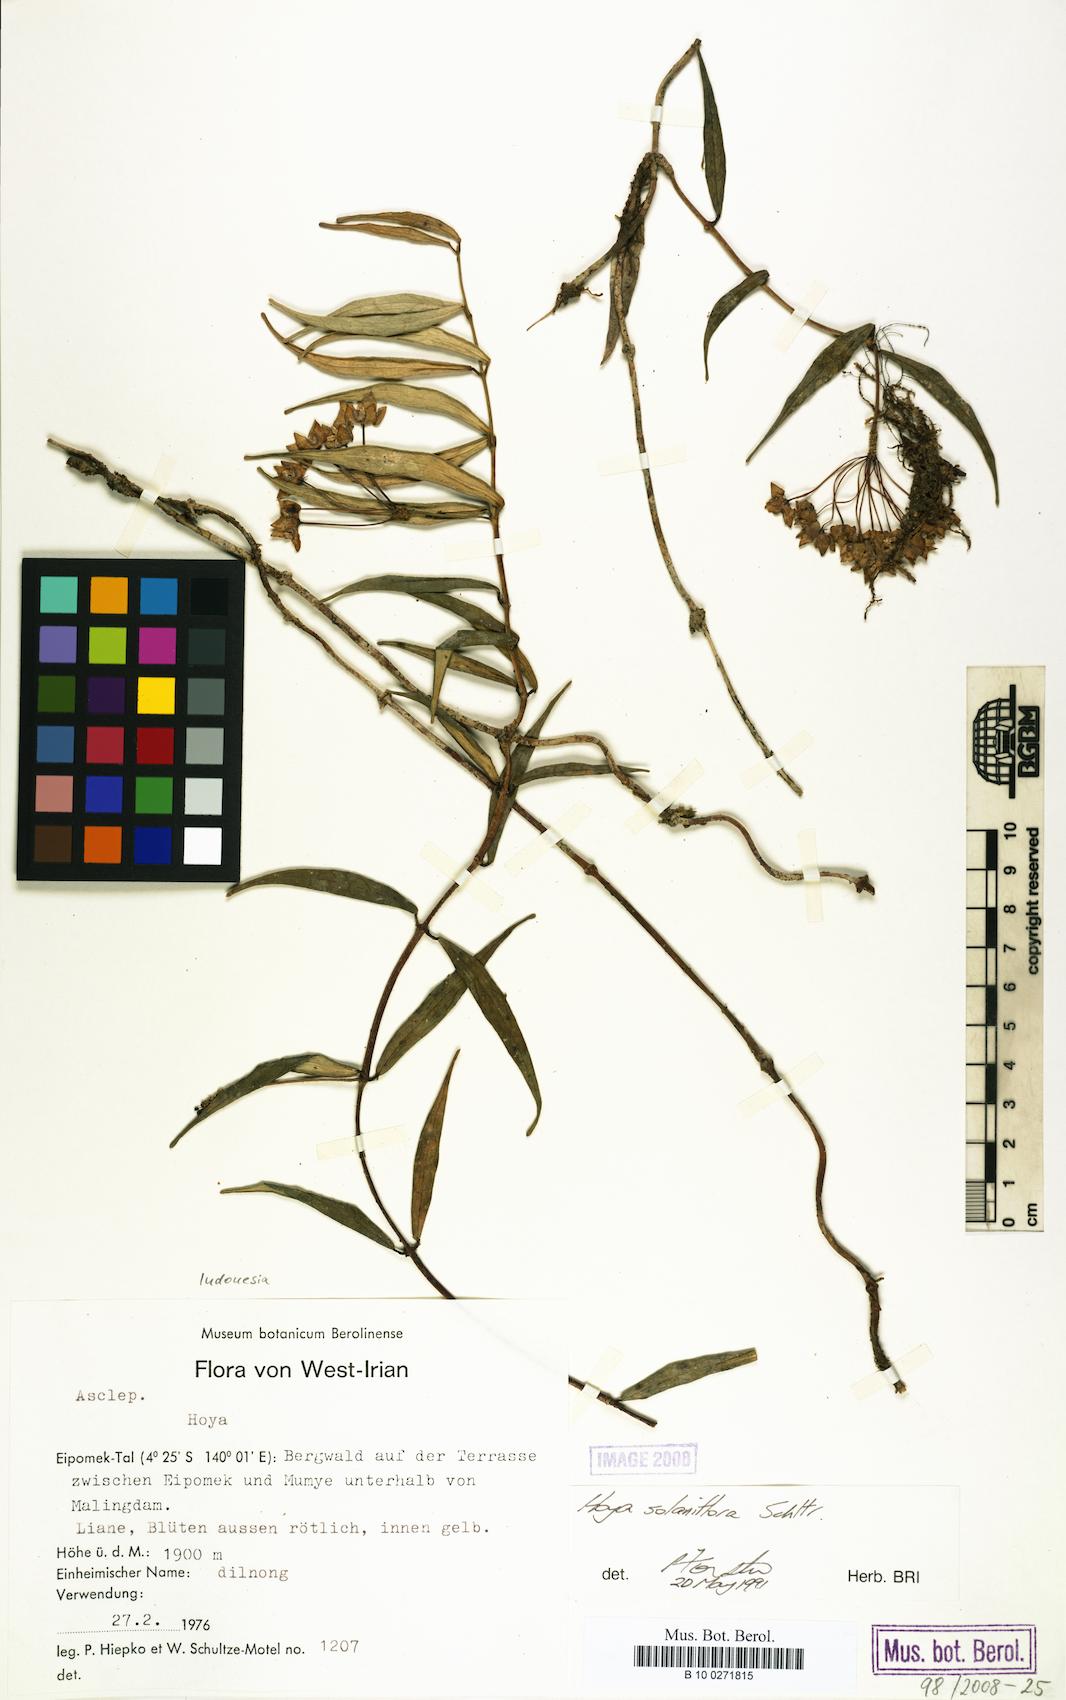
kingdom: Plantae
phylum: Tracheophyta
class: Magnoliopsida
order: Gentianales
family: Apocynaceae
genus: Hoya
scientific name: Hoya solaniflora
